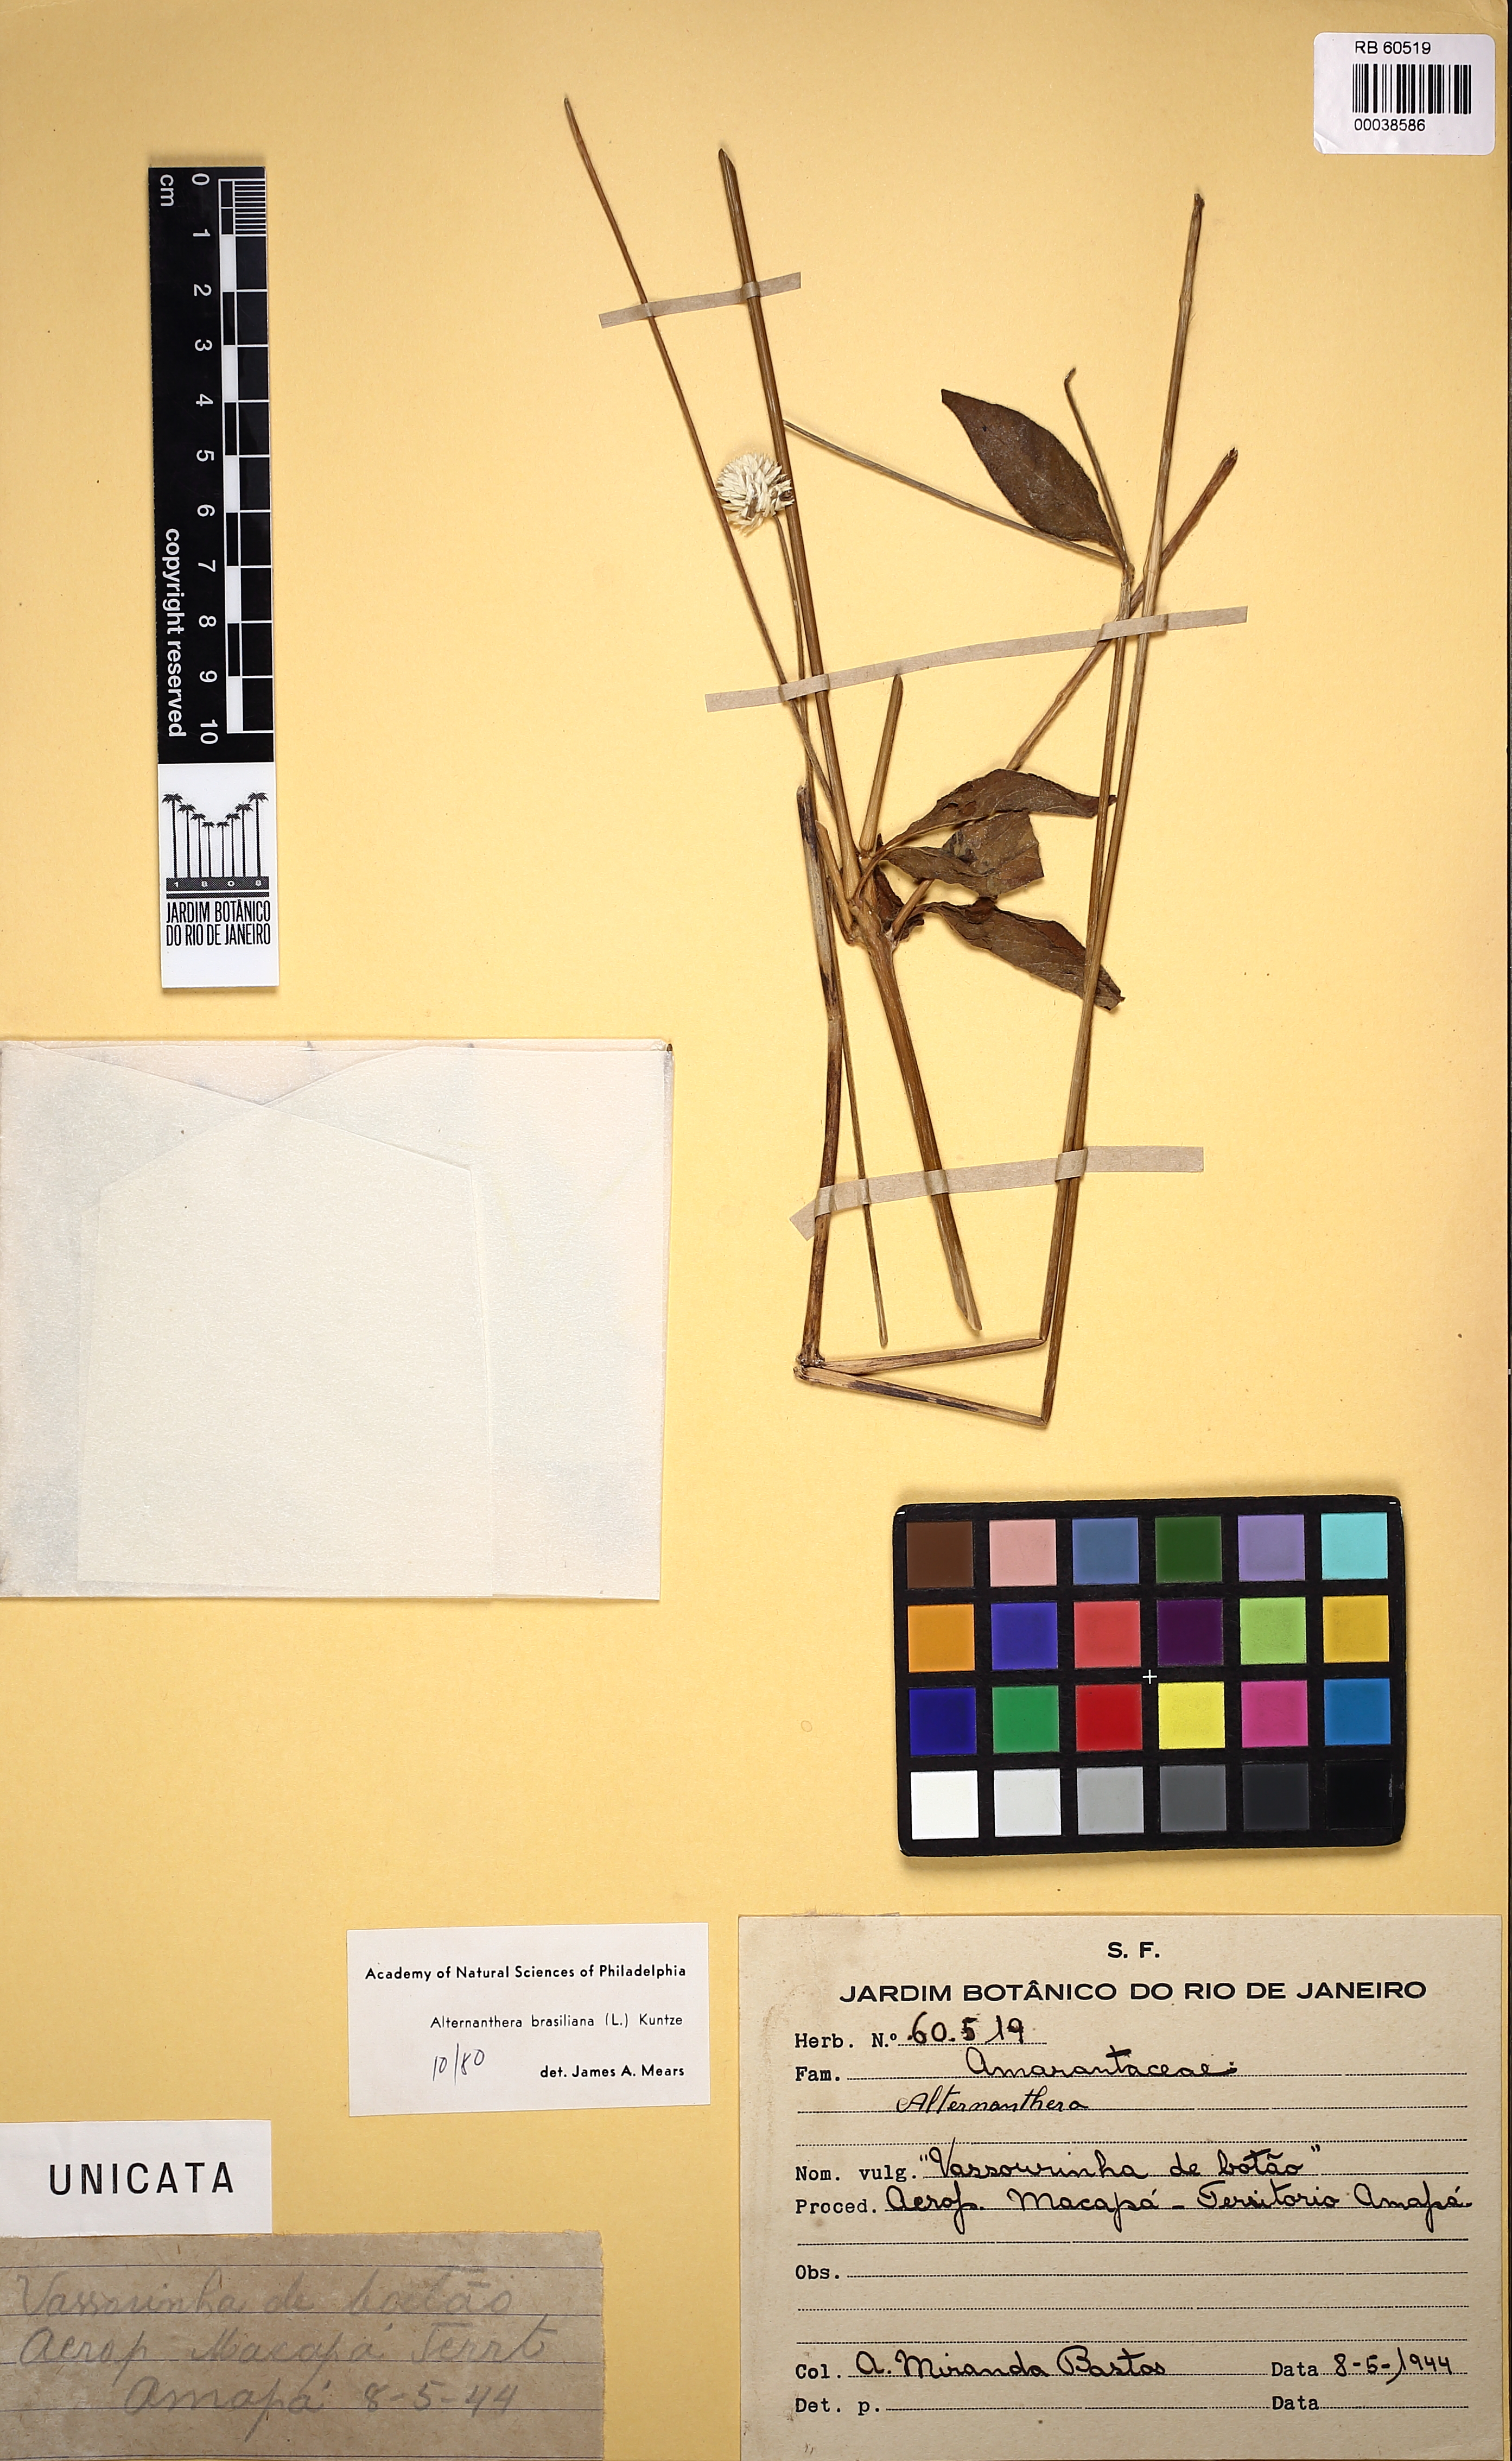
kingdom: Plantae
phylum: Tracheophyta
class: Magnoliopsida
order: Caryophyllales
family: Amaranthaceae
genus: Alternanthera
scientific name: Alternanthera ramosissima
